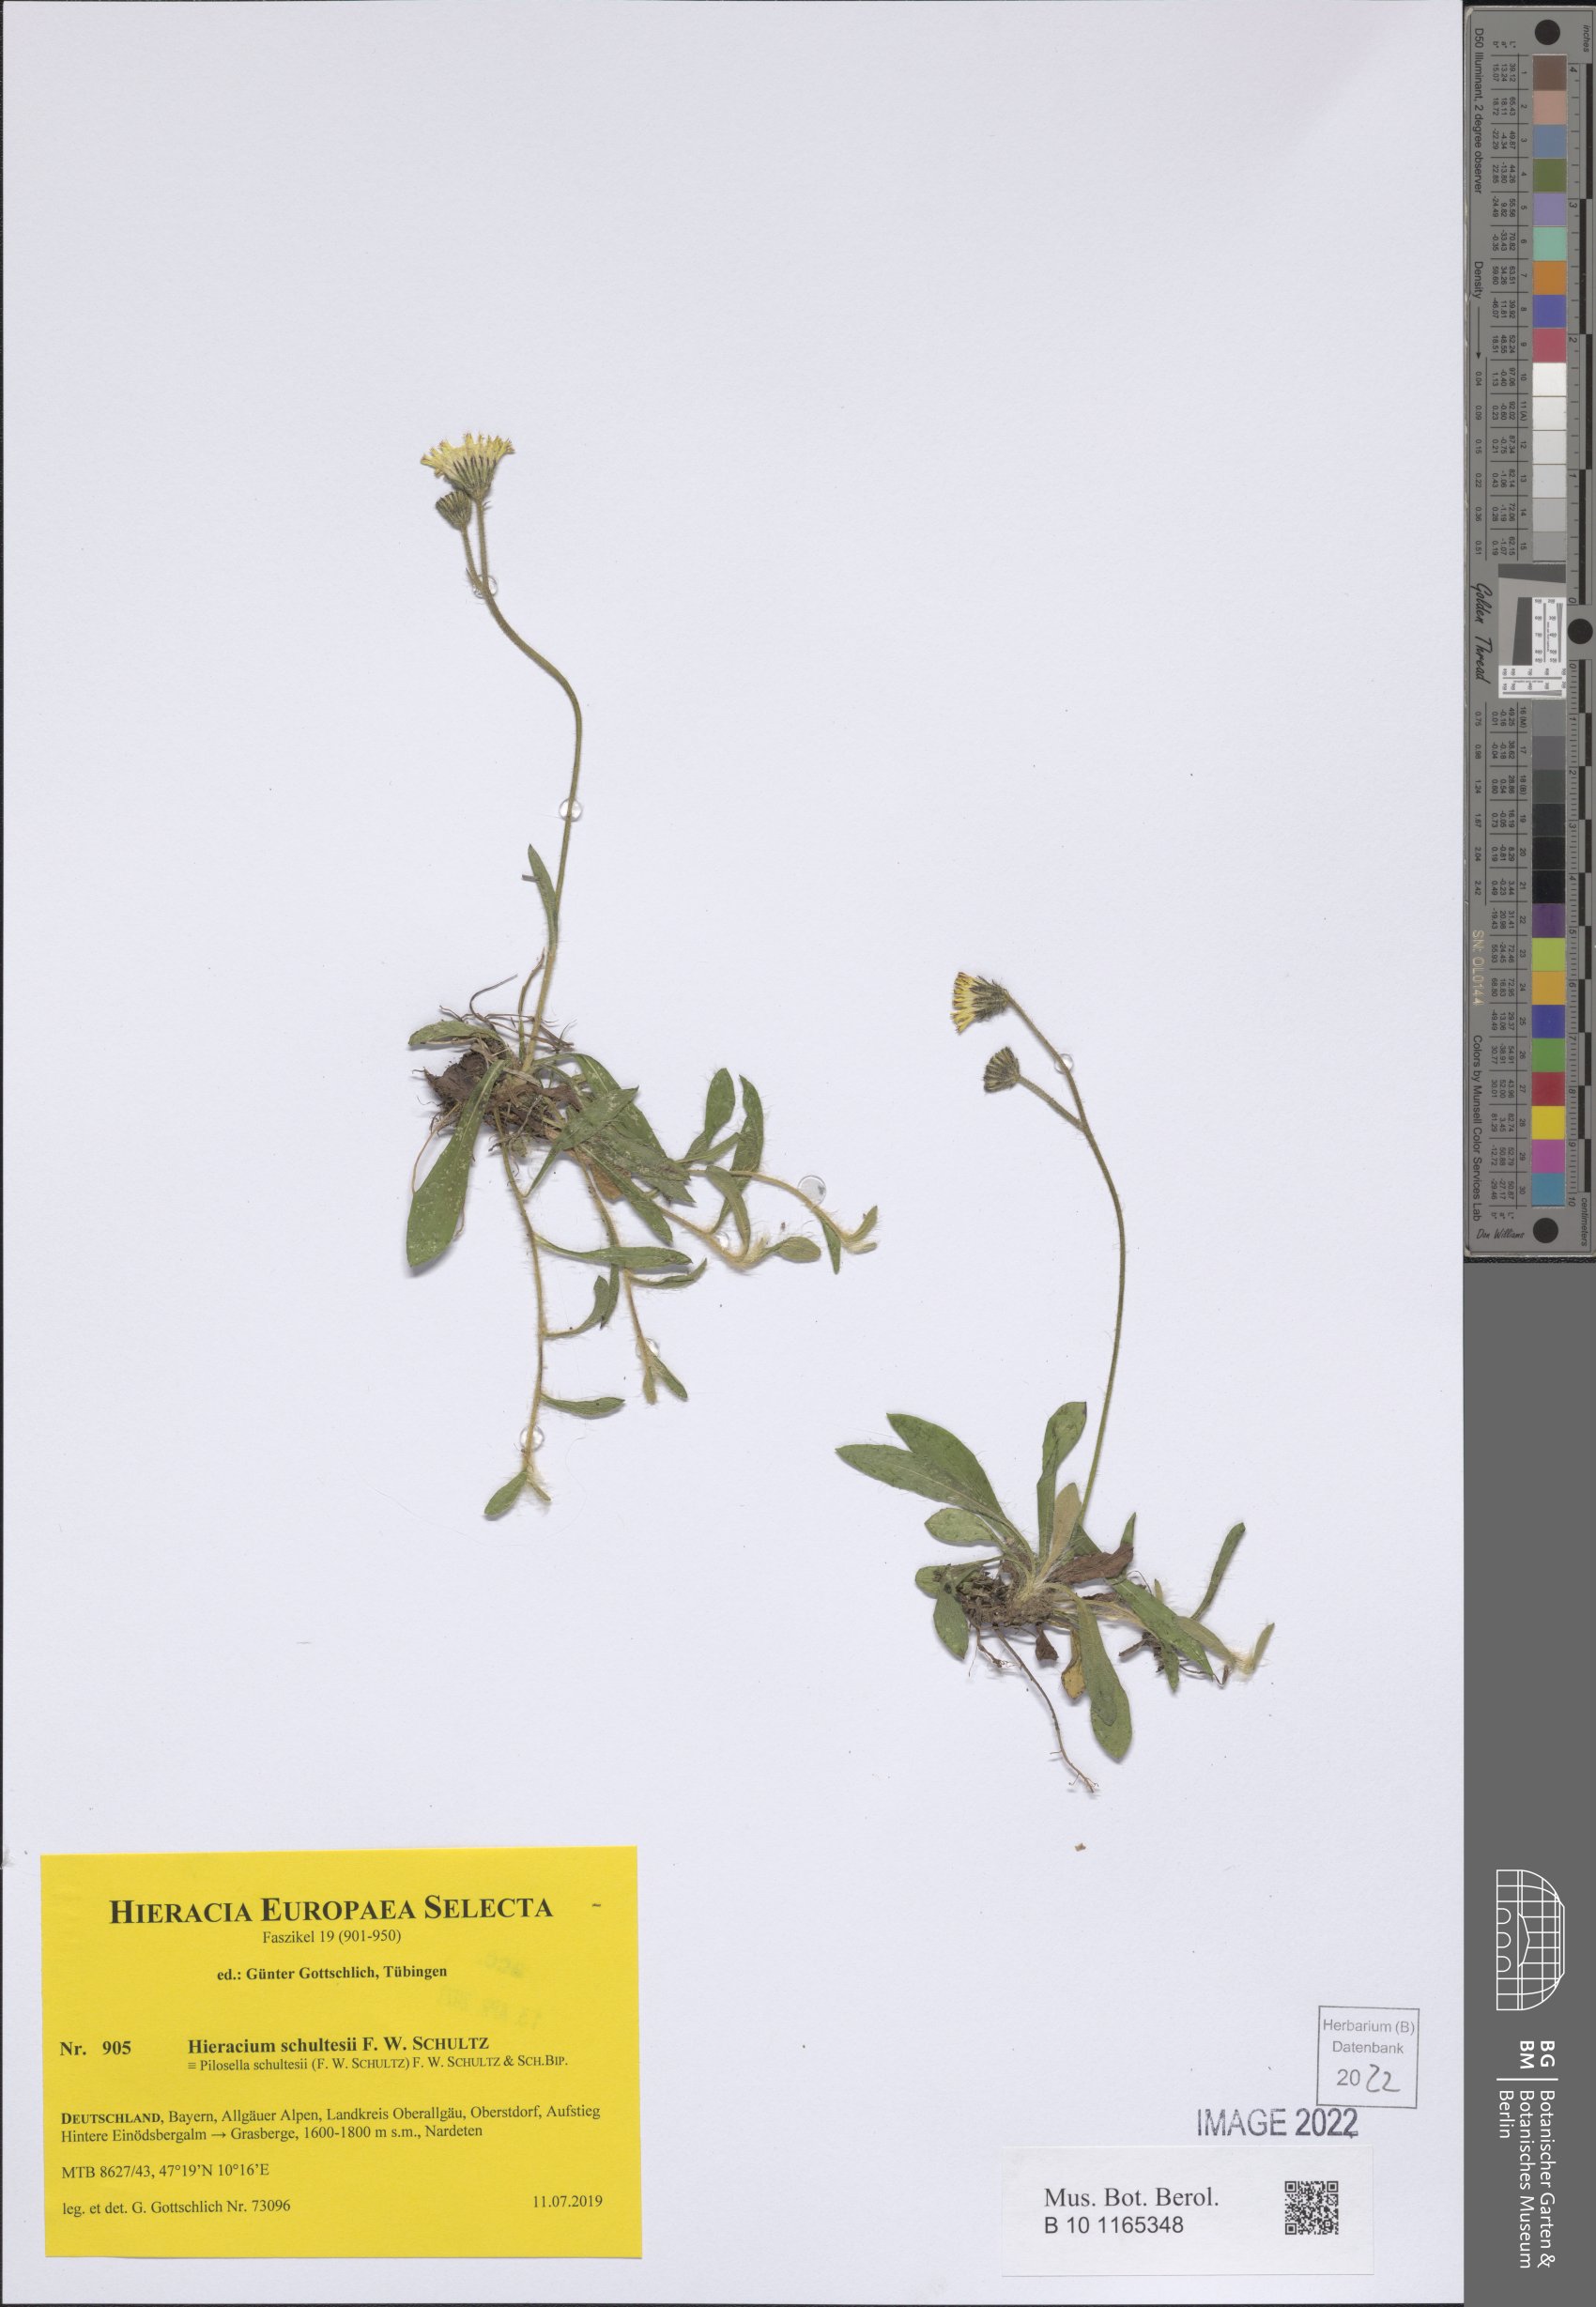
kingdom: Plantae
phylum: Tracheophyta
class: Magnoliopsida
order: Asterales
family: Asteraceae
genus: Pilosella
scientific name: Pilosella schultesii
